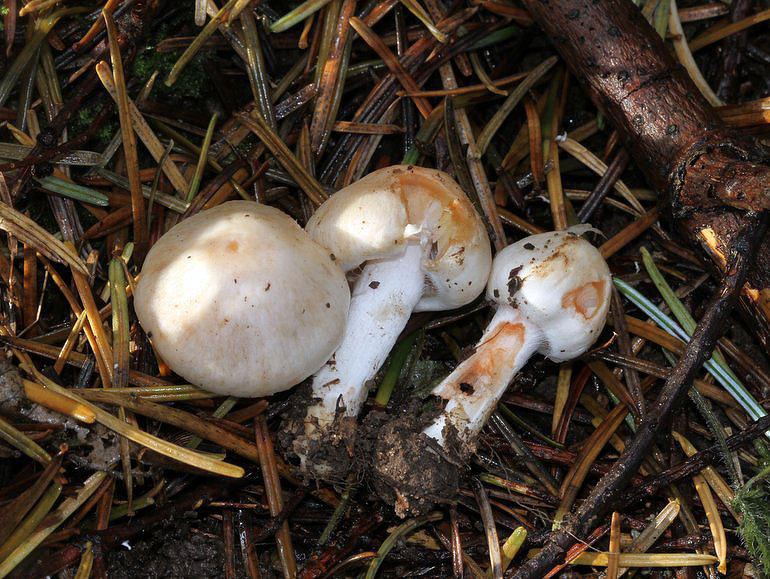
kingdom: Fungi
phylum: Basidiomycota
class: Agaricomycetes
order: Agaricales
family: Inocybaceae
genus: Inocybe
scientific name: Inocybe
